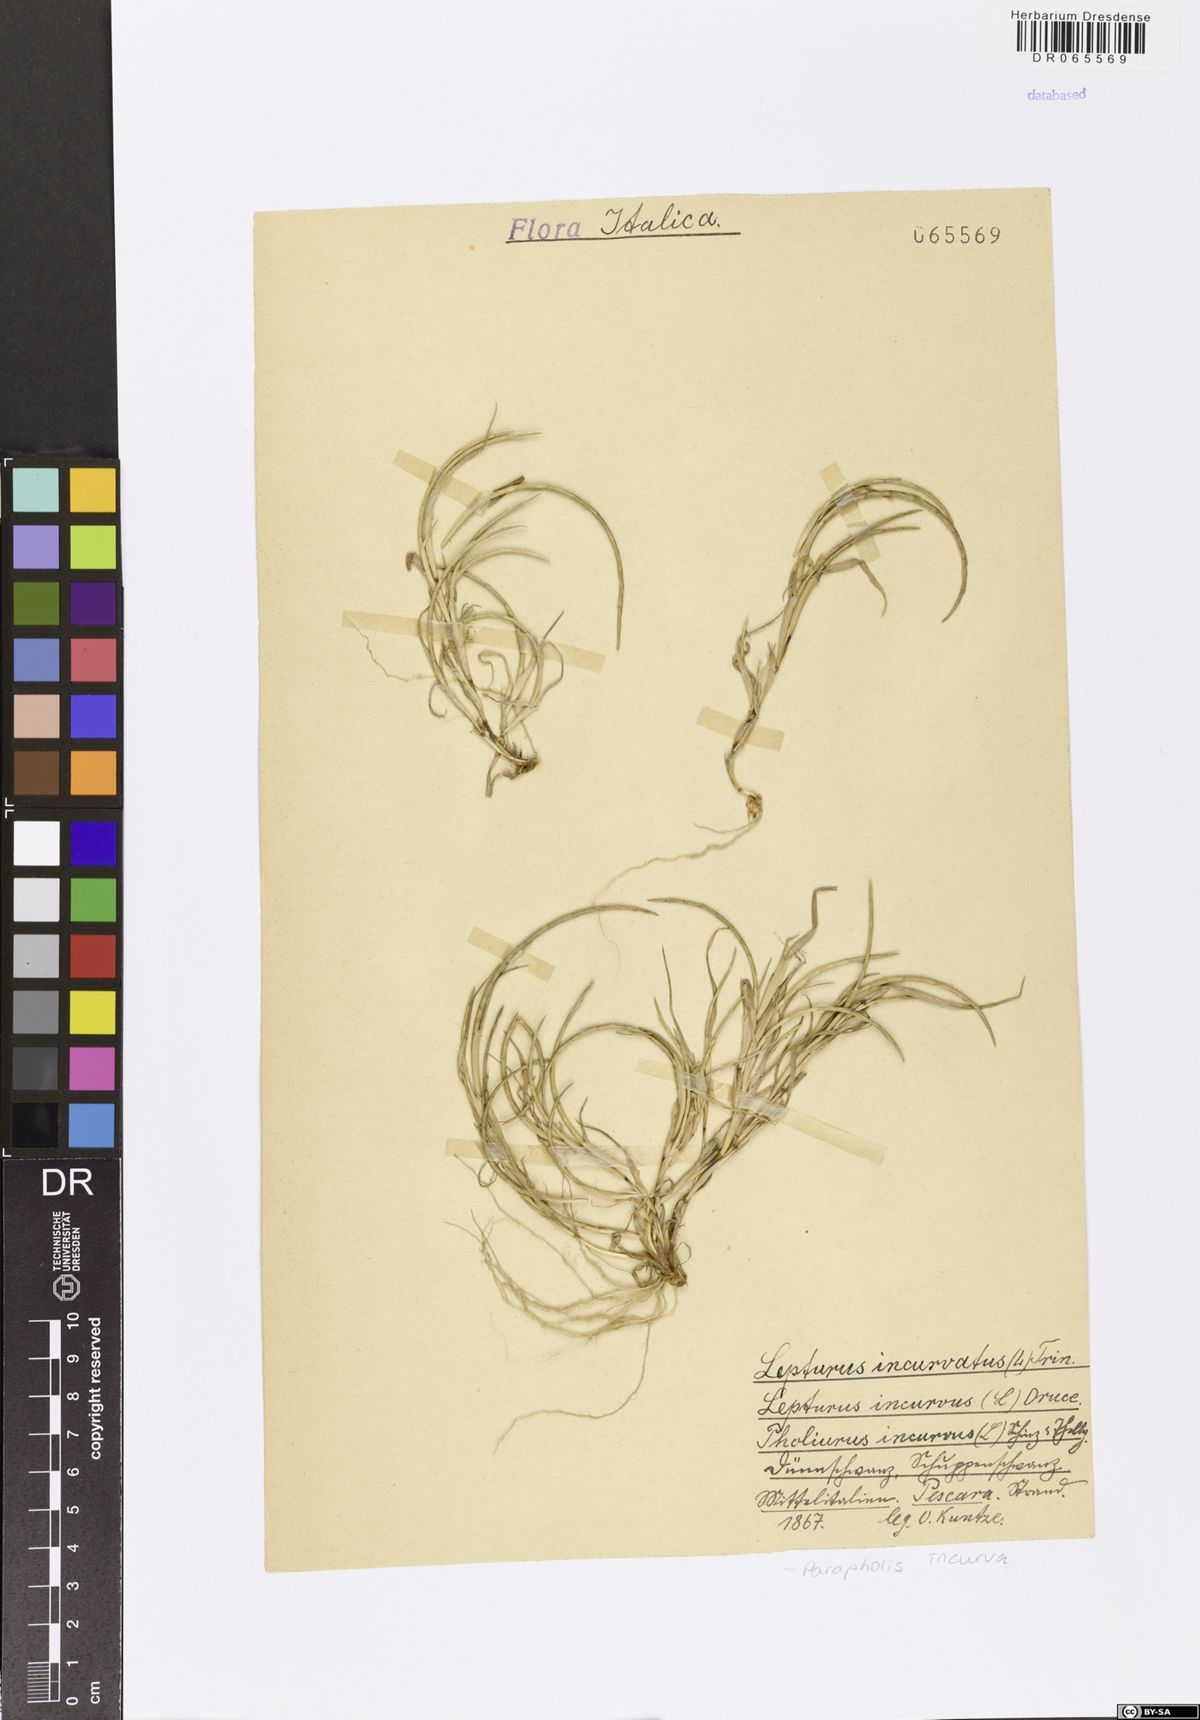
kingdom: Plantae
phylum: Tracheophyta
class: Liliopsida
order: Poales
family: Poaceae
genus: Parapholis
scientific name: Parapholis incurva
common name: Curved sicklegrass
